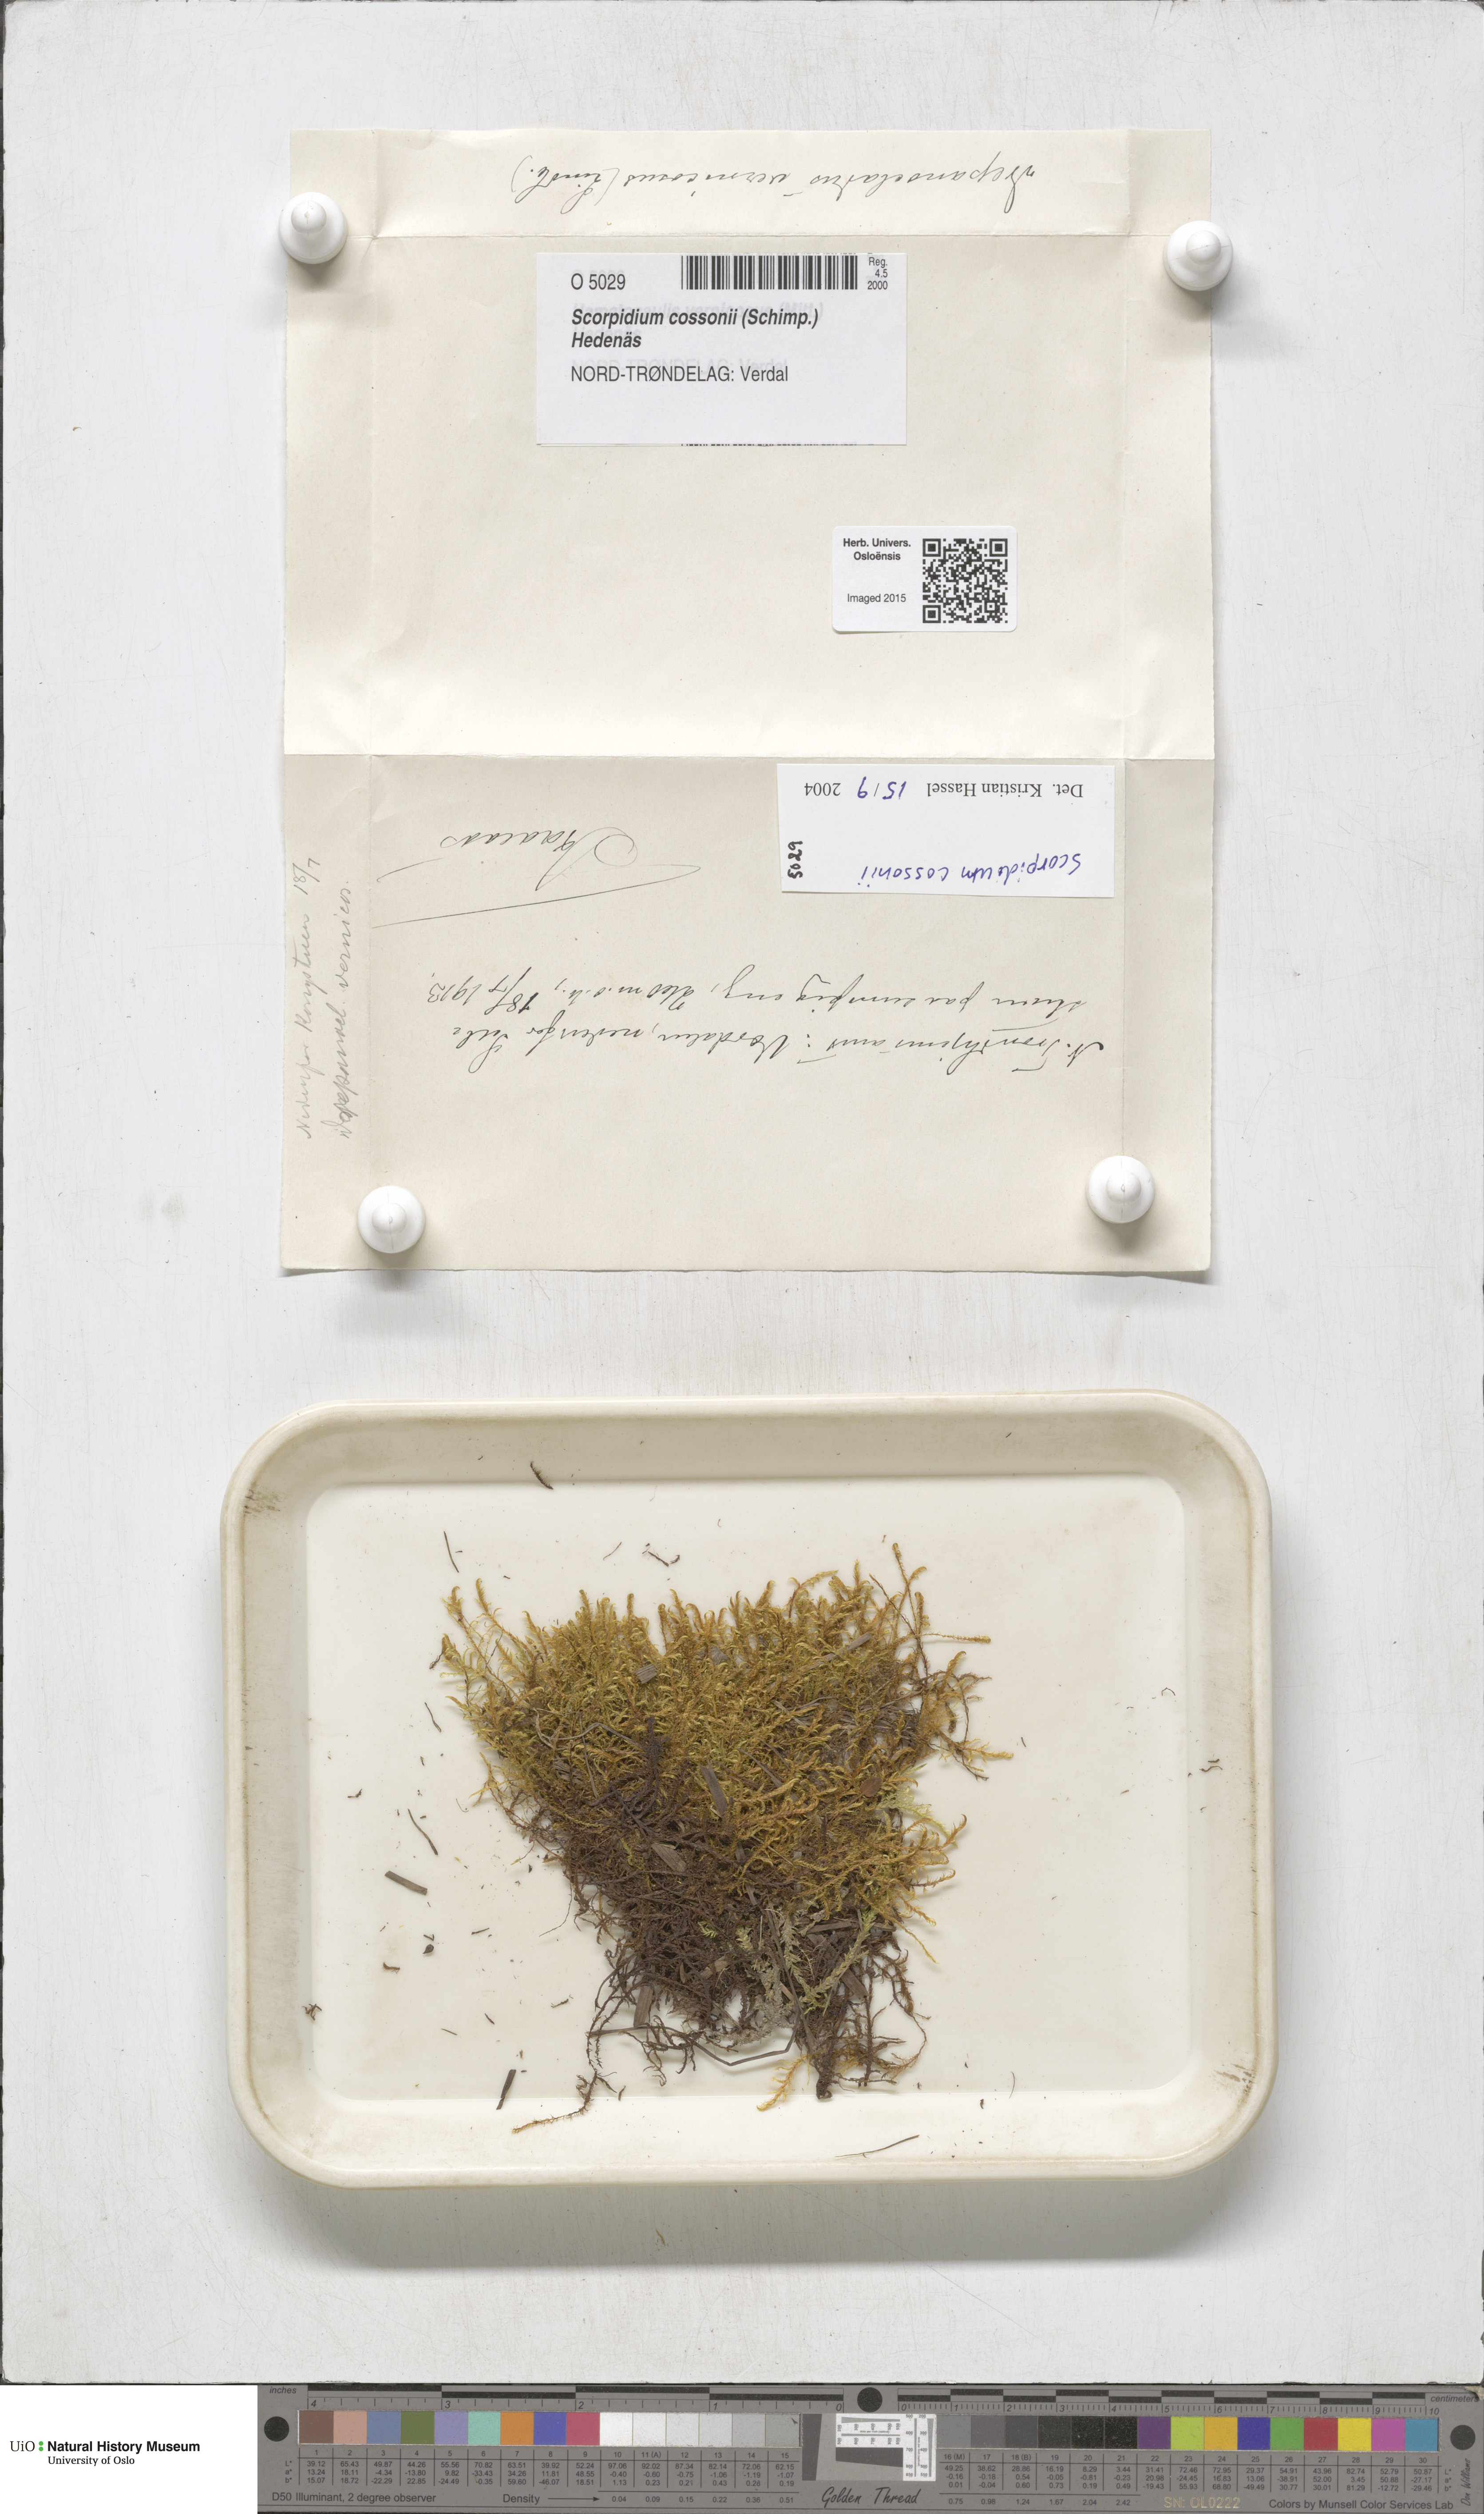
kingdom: Plantae
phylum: Bryophyta
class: Bryopsida
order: Hypnales
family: Scorpidiaceae
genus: Scorpidium
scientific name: Scorpidium cossonii
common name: Cosson's hook moss
